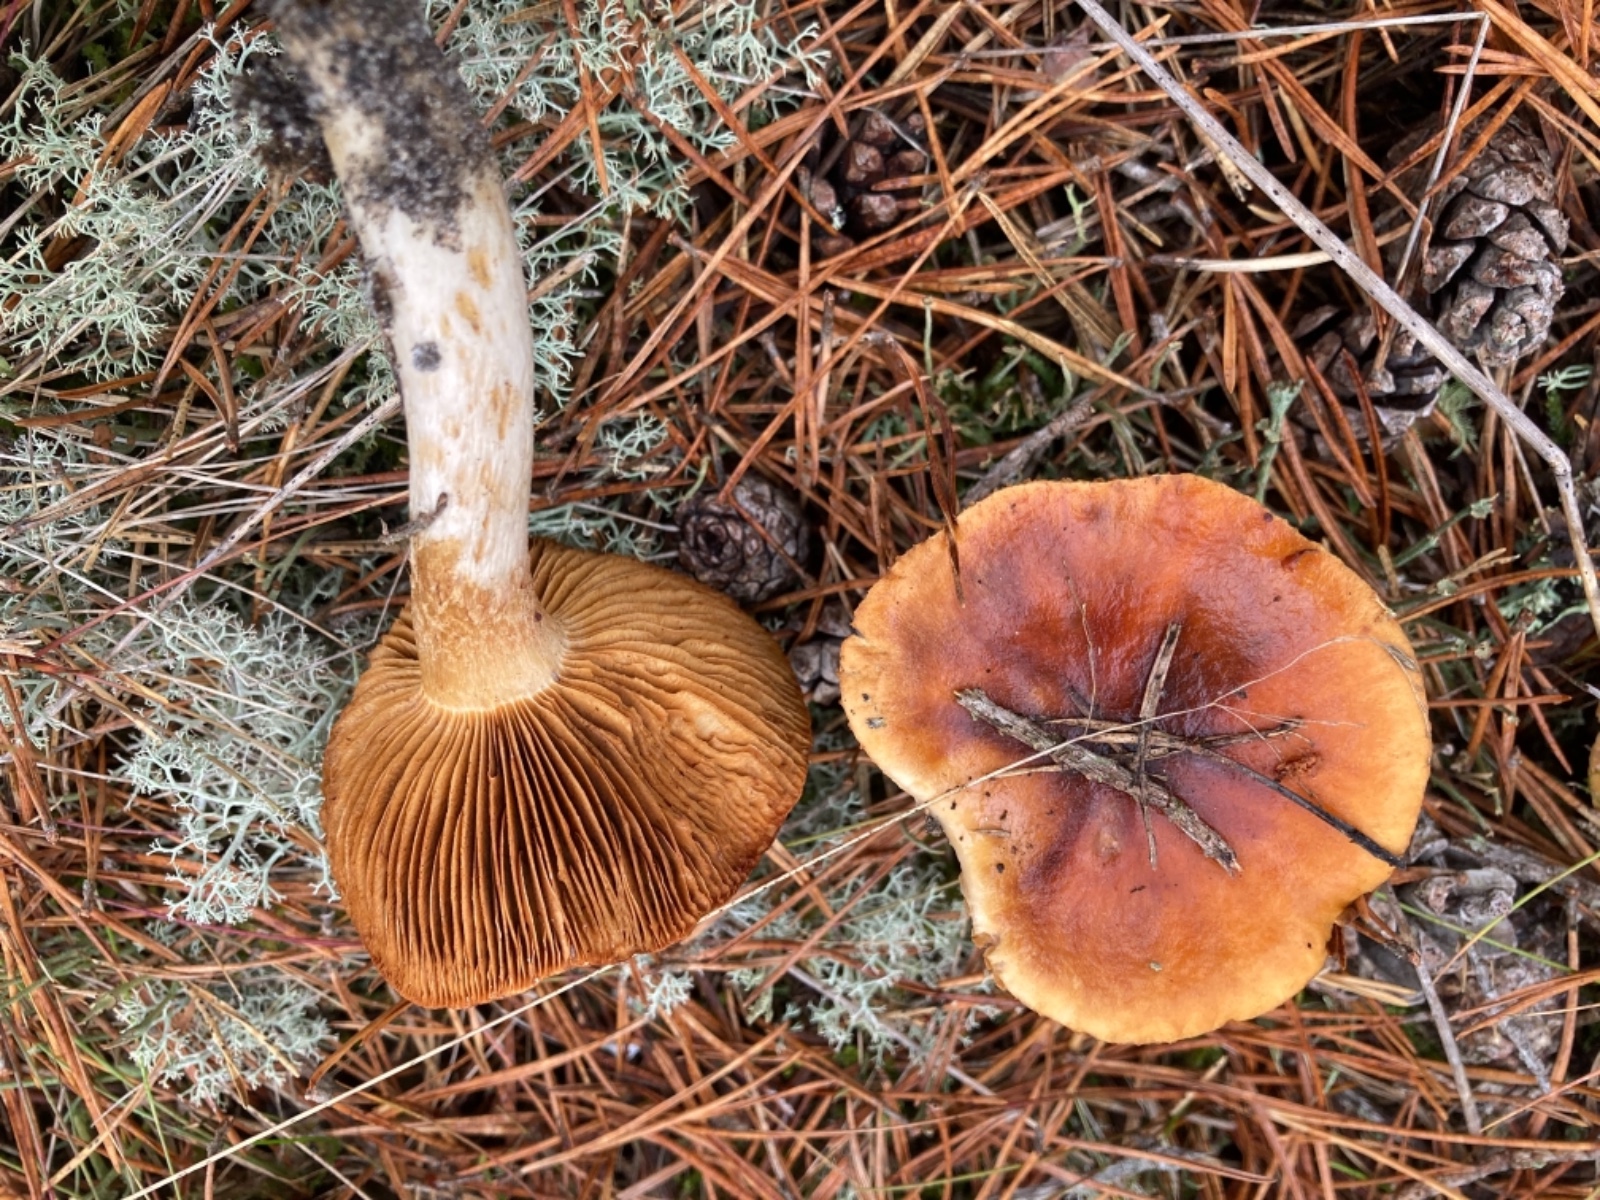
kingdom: Fungi
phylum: Basidiomycota
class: Agaricomycetes
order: Agaricales
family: Cortinariaceae
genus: Cortinarius
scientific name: Cortinarius mucosus
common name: kastaniebrun slørhat
